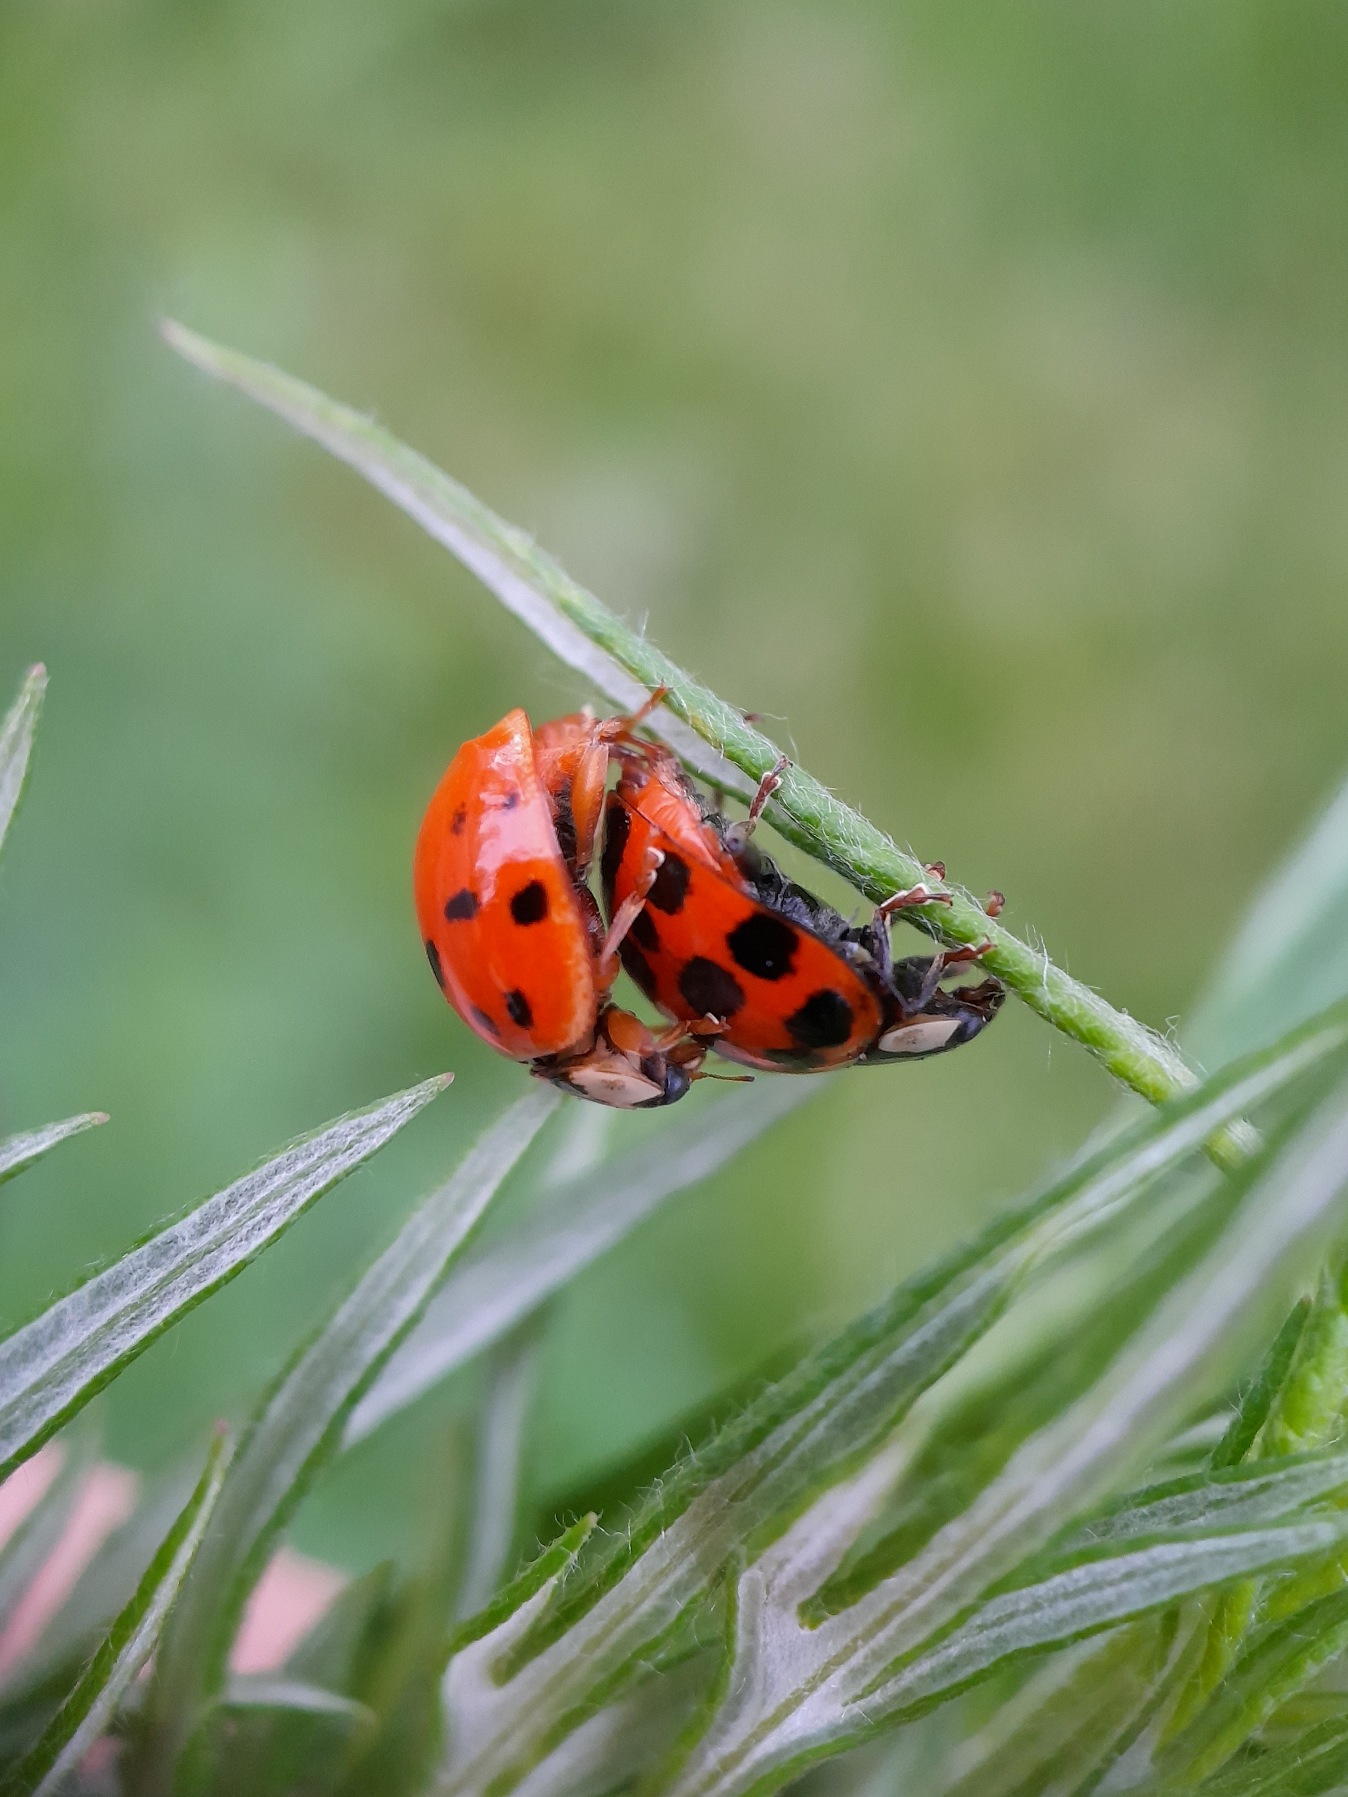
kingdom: Animalia
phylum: Arthropoda
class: Insecta
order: Coleoptera
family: Coccinellidae
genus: Harmonia
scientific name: Harmonia axyridis
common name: Harlekinmariehøne
